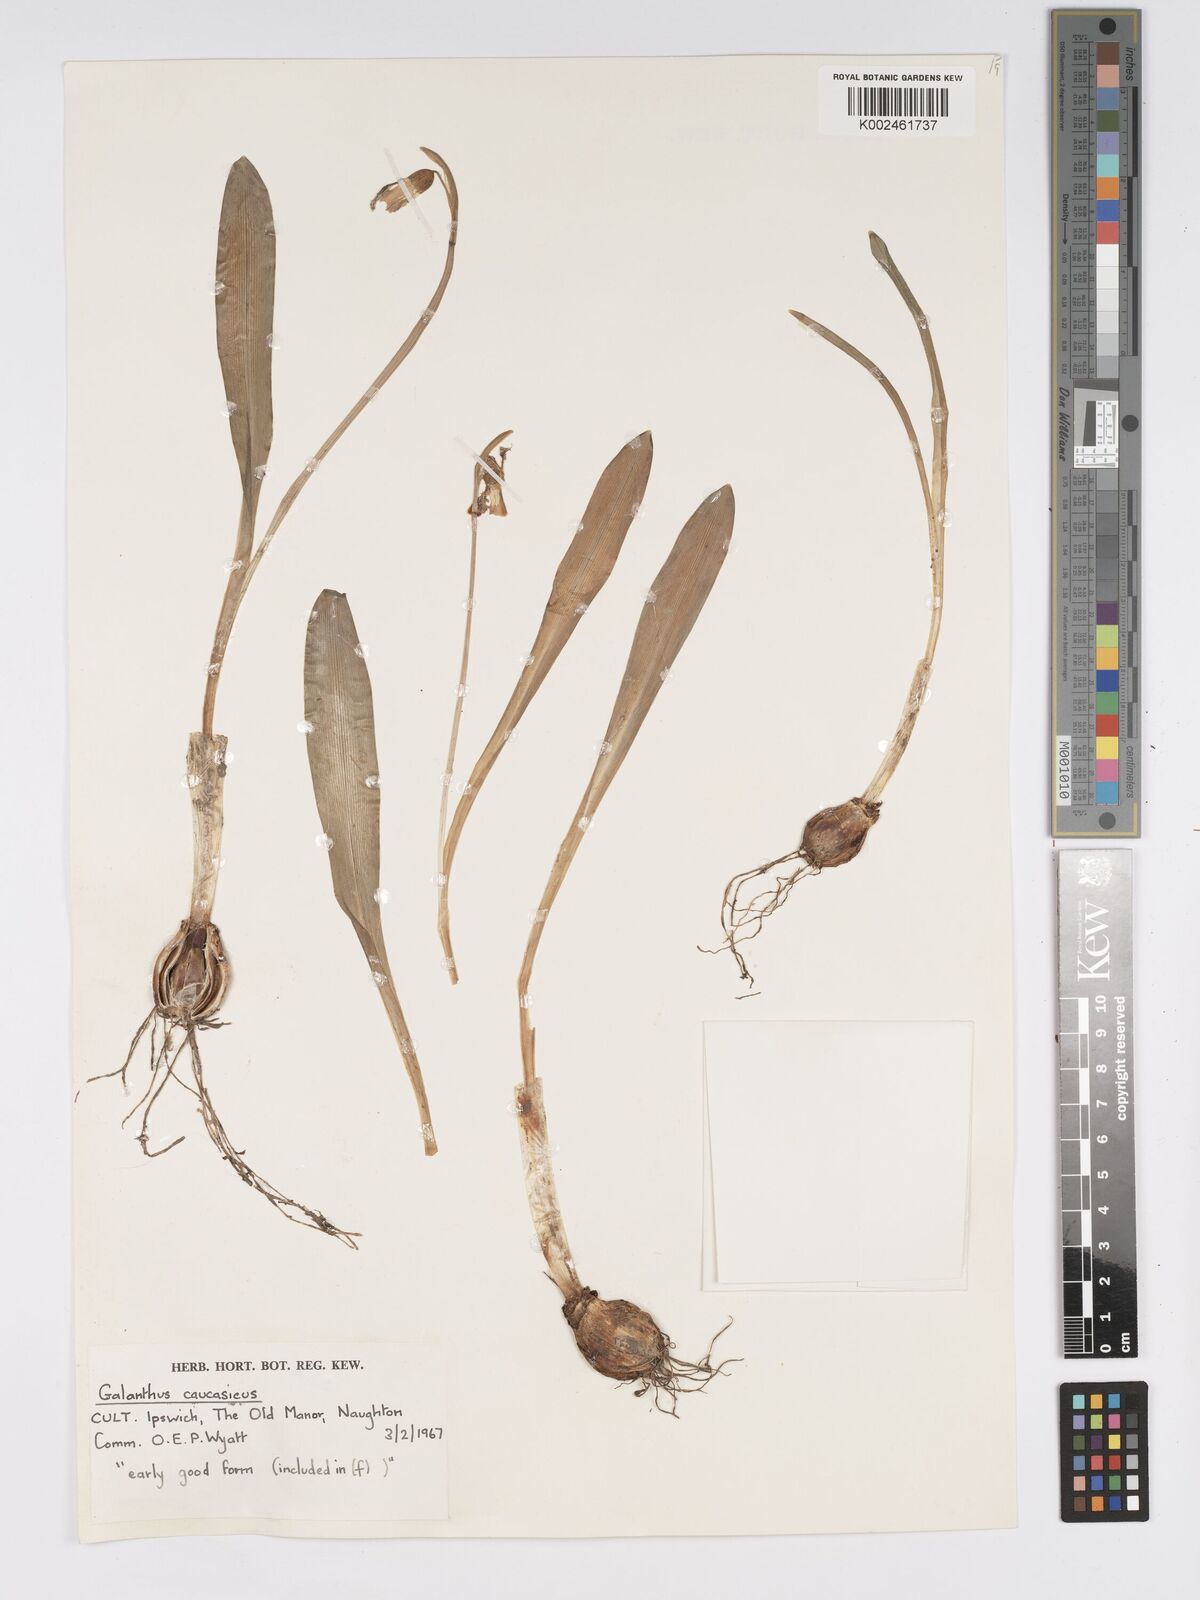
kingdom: Plantae
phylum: Tracheophyta
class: Liliopsida
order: Asparagales
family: Amaryllidaceae
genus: Galanthus
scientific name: Galanthus alpinus
